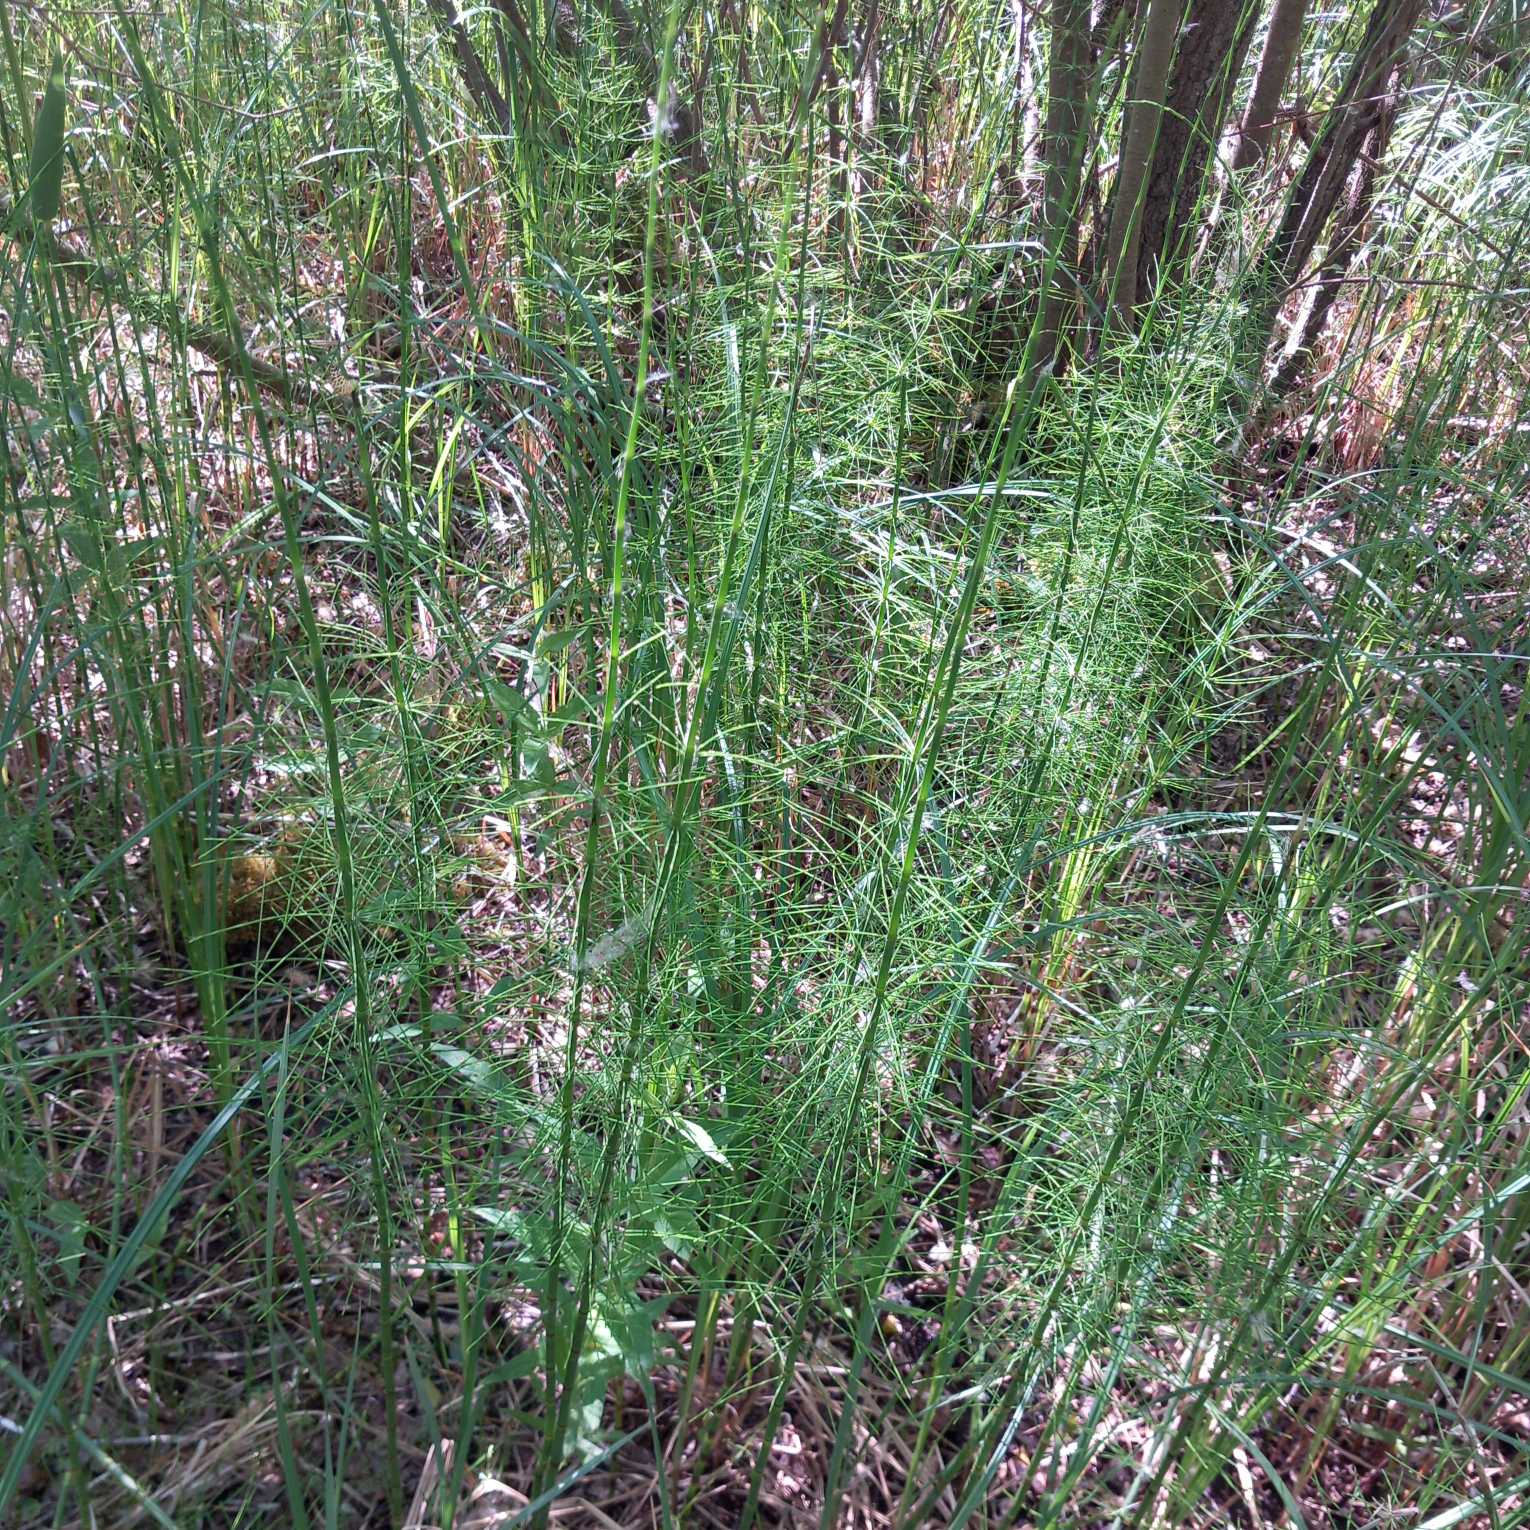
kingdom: Plantae
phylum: Tracheophyta
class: Polypodiopsida
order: Equisetales
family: Equisetaceae
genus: Equisetum
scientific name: Equisetum fluviatile
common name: Dynd-padderok
